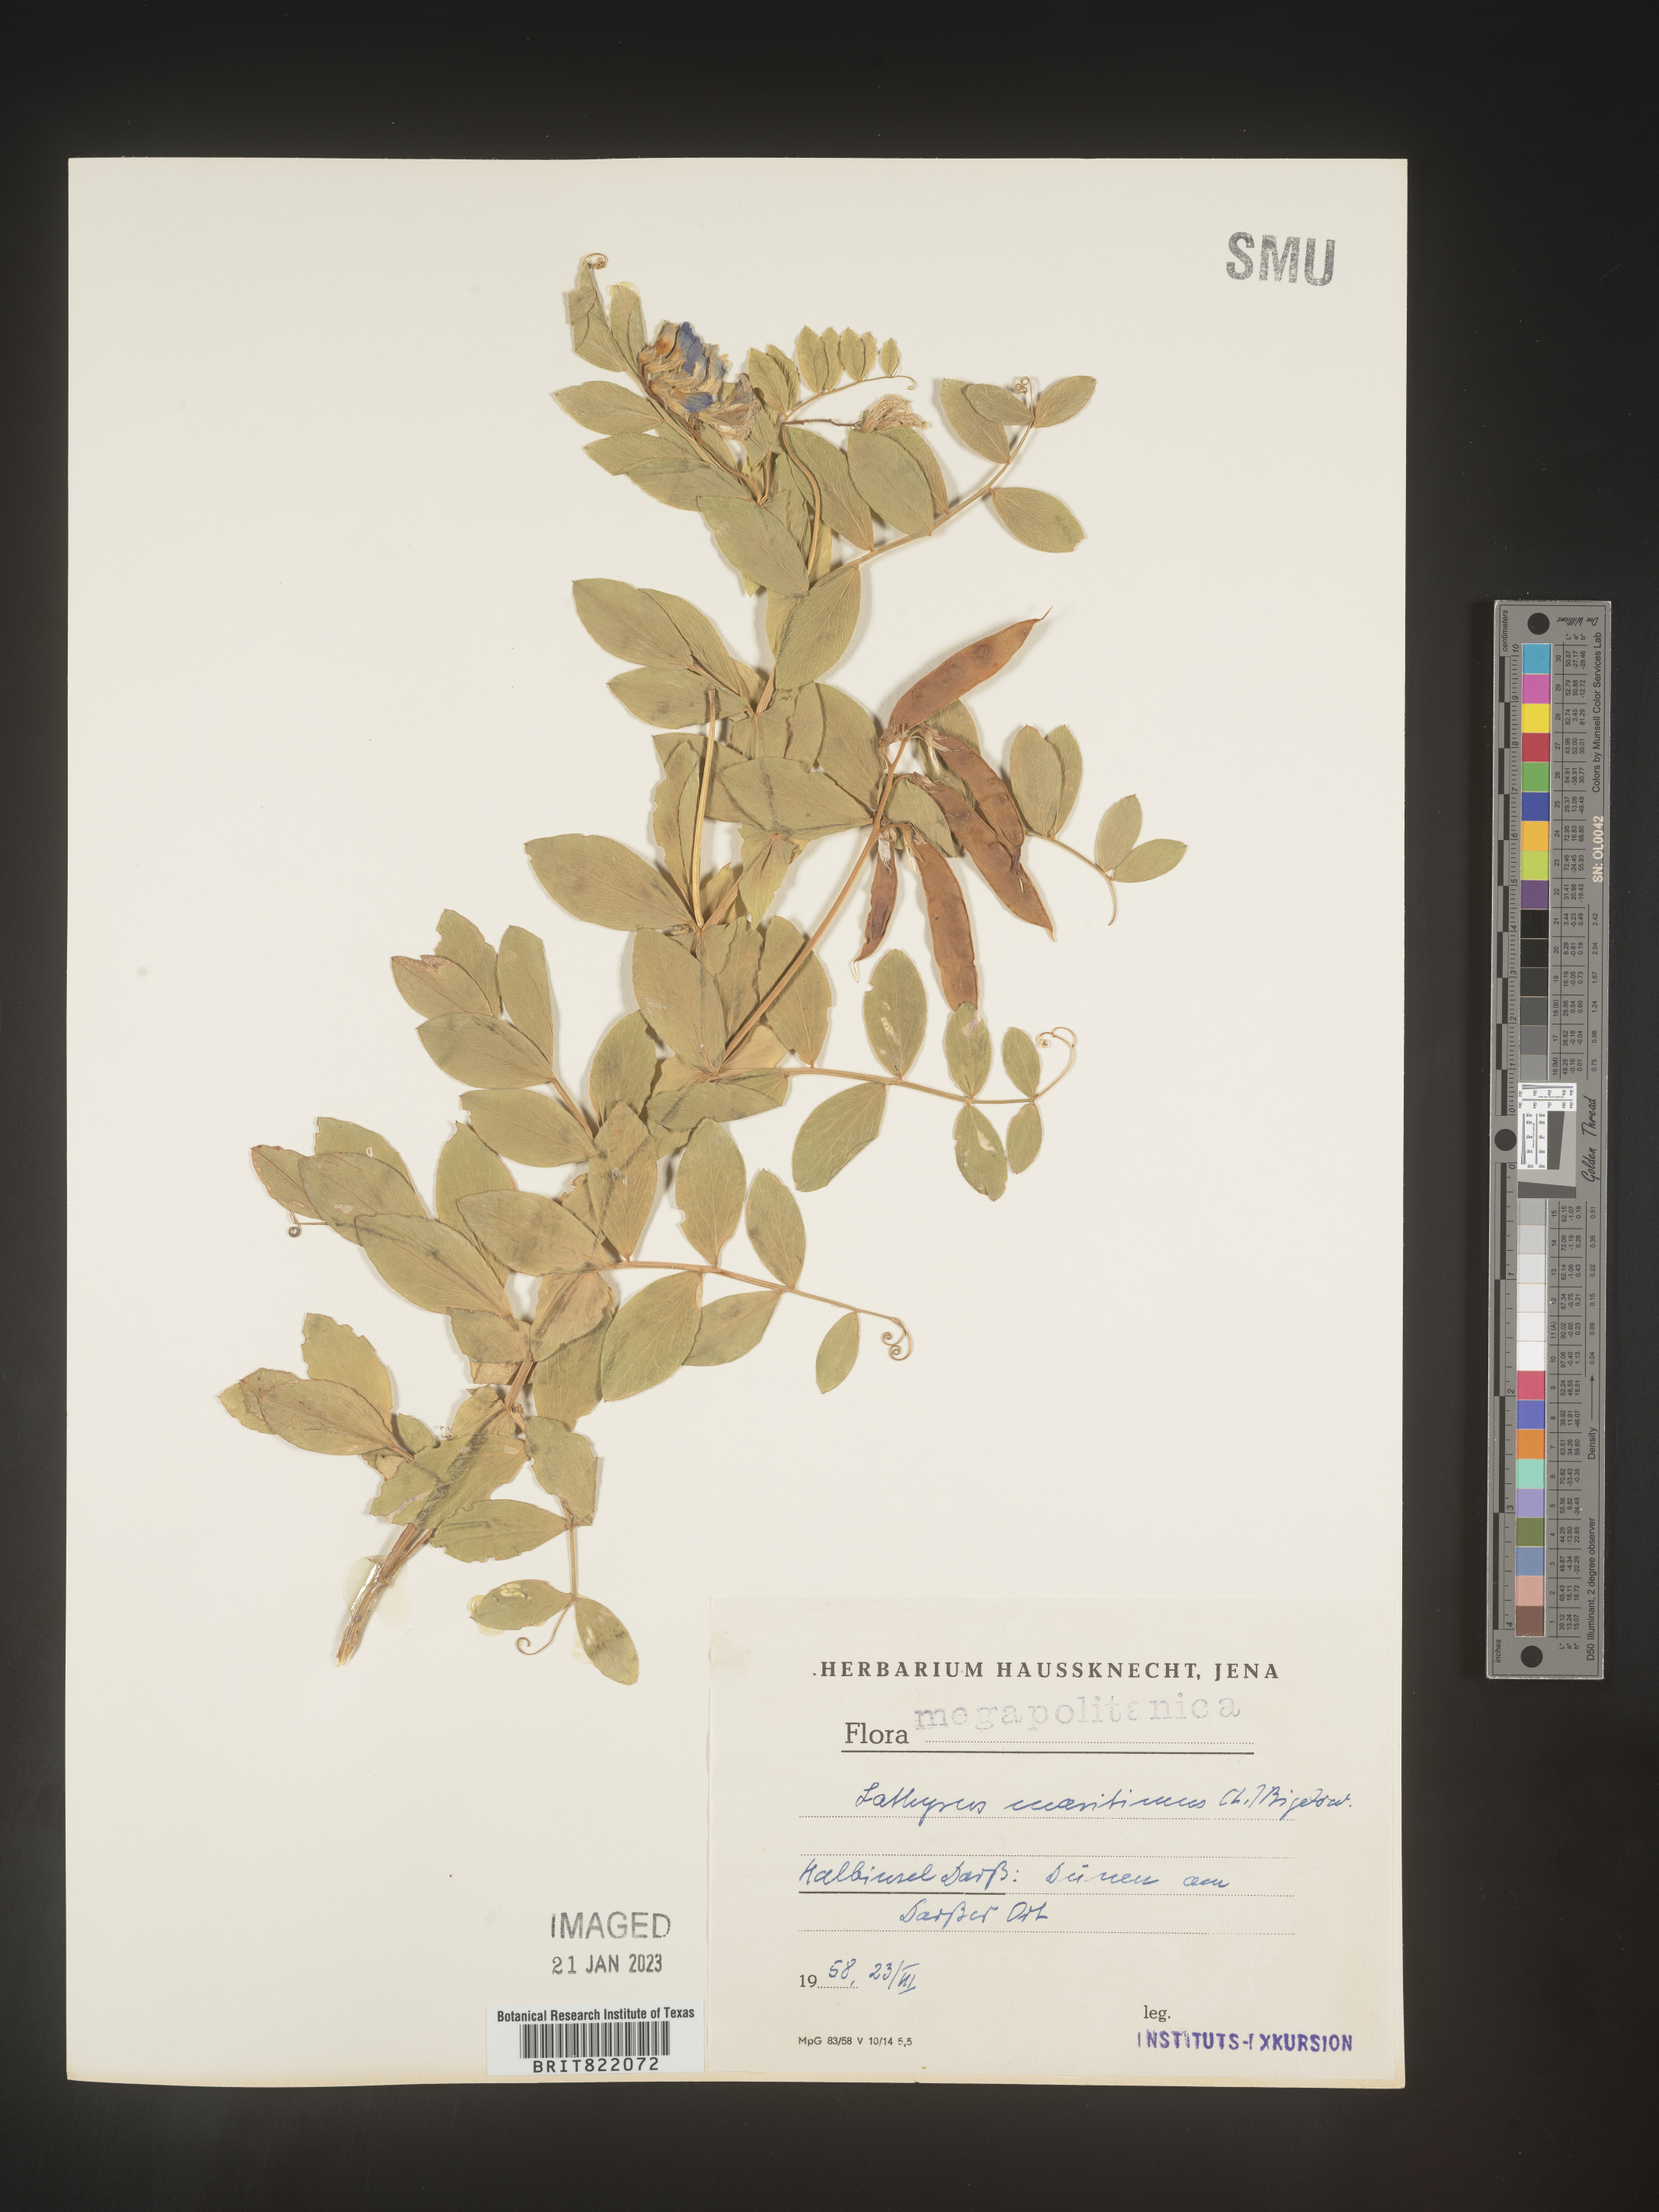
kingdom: Plantae
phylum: Tracheophyta
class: Magnoliopsida
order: Fabales
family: Fabaceae
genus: Lathyrus
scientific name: Lathyrus
